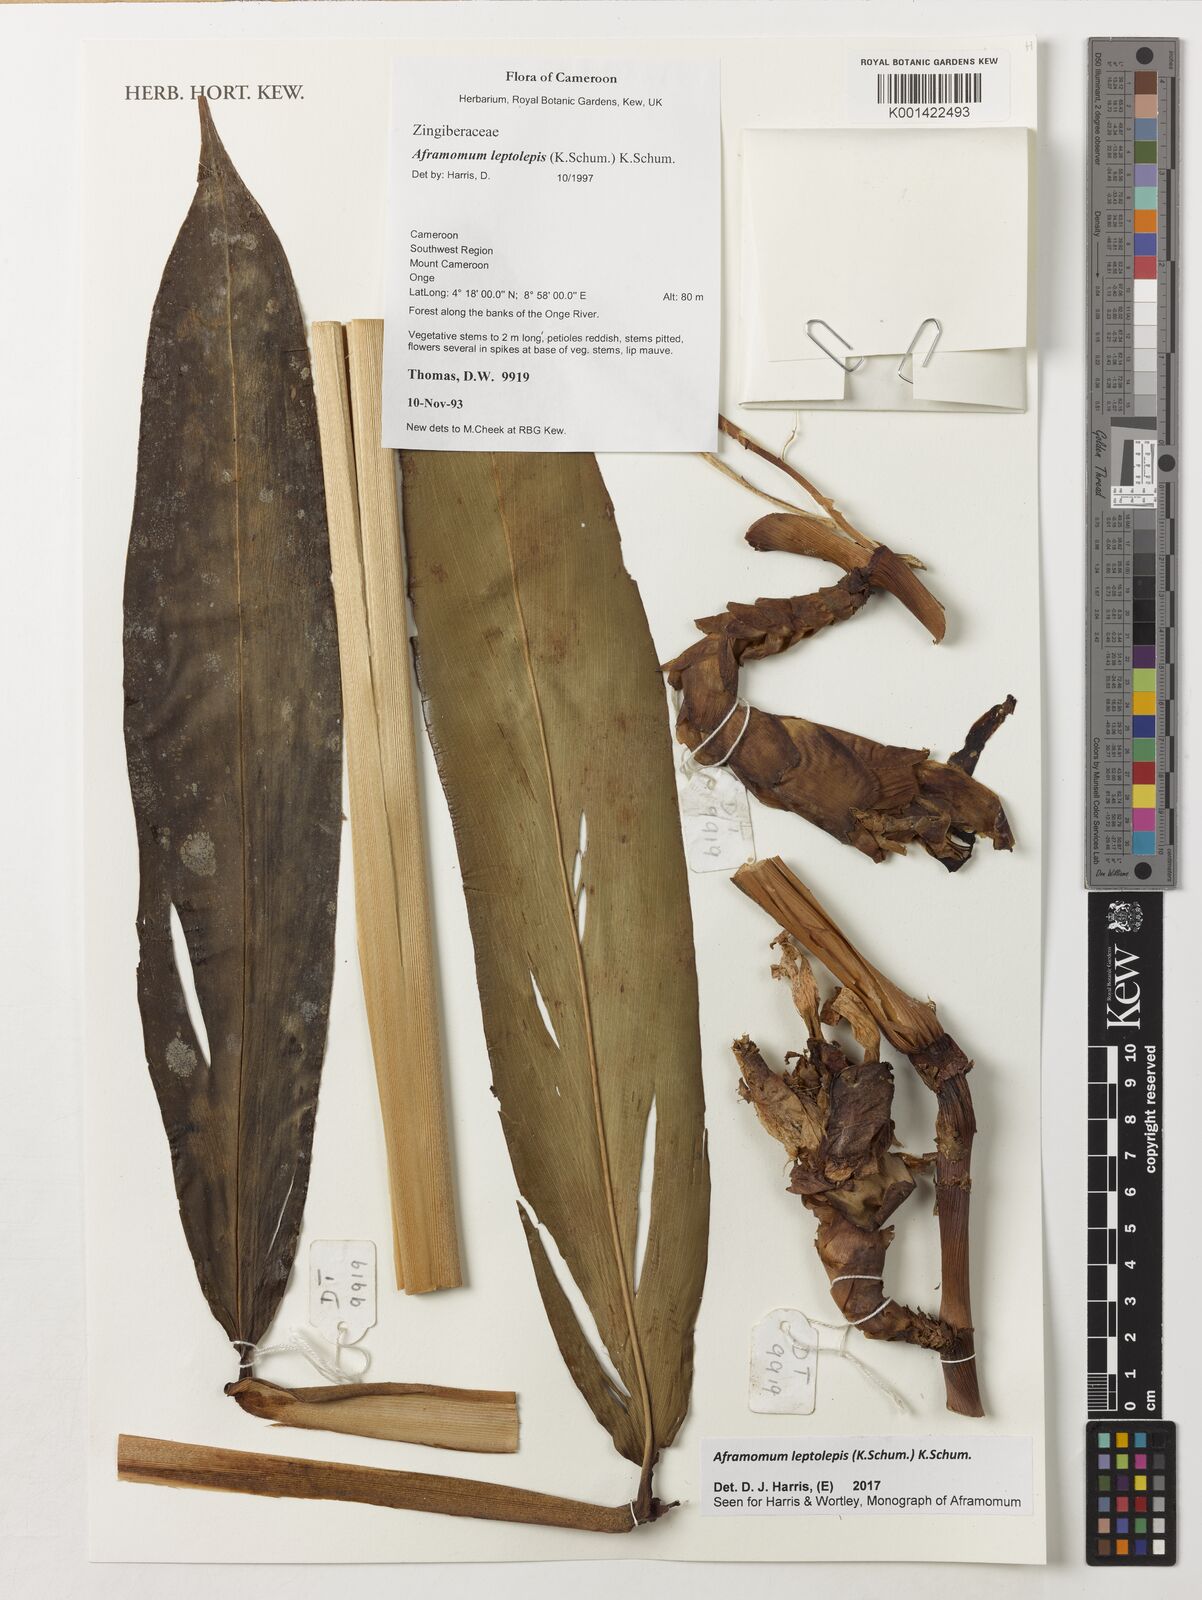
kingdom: Plantae
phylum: Tracheophyta
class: Liliopsida
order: Zingiberales
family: Zingiberaceae
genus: Aframomum
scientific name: Aframomum leptolepis
